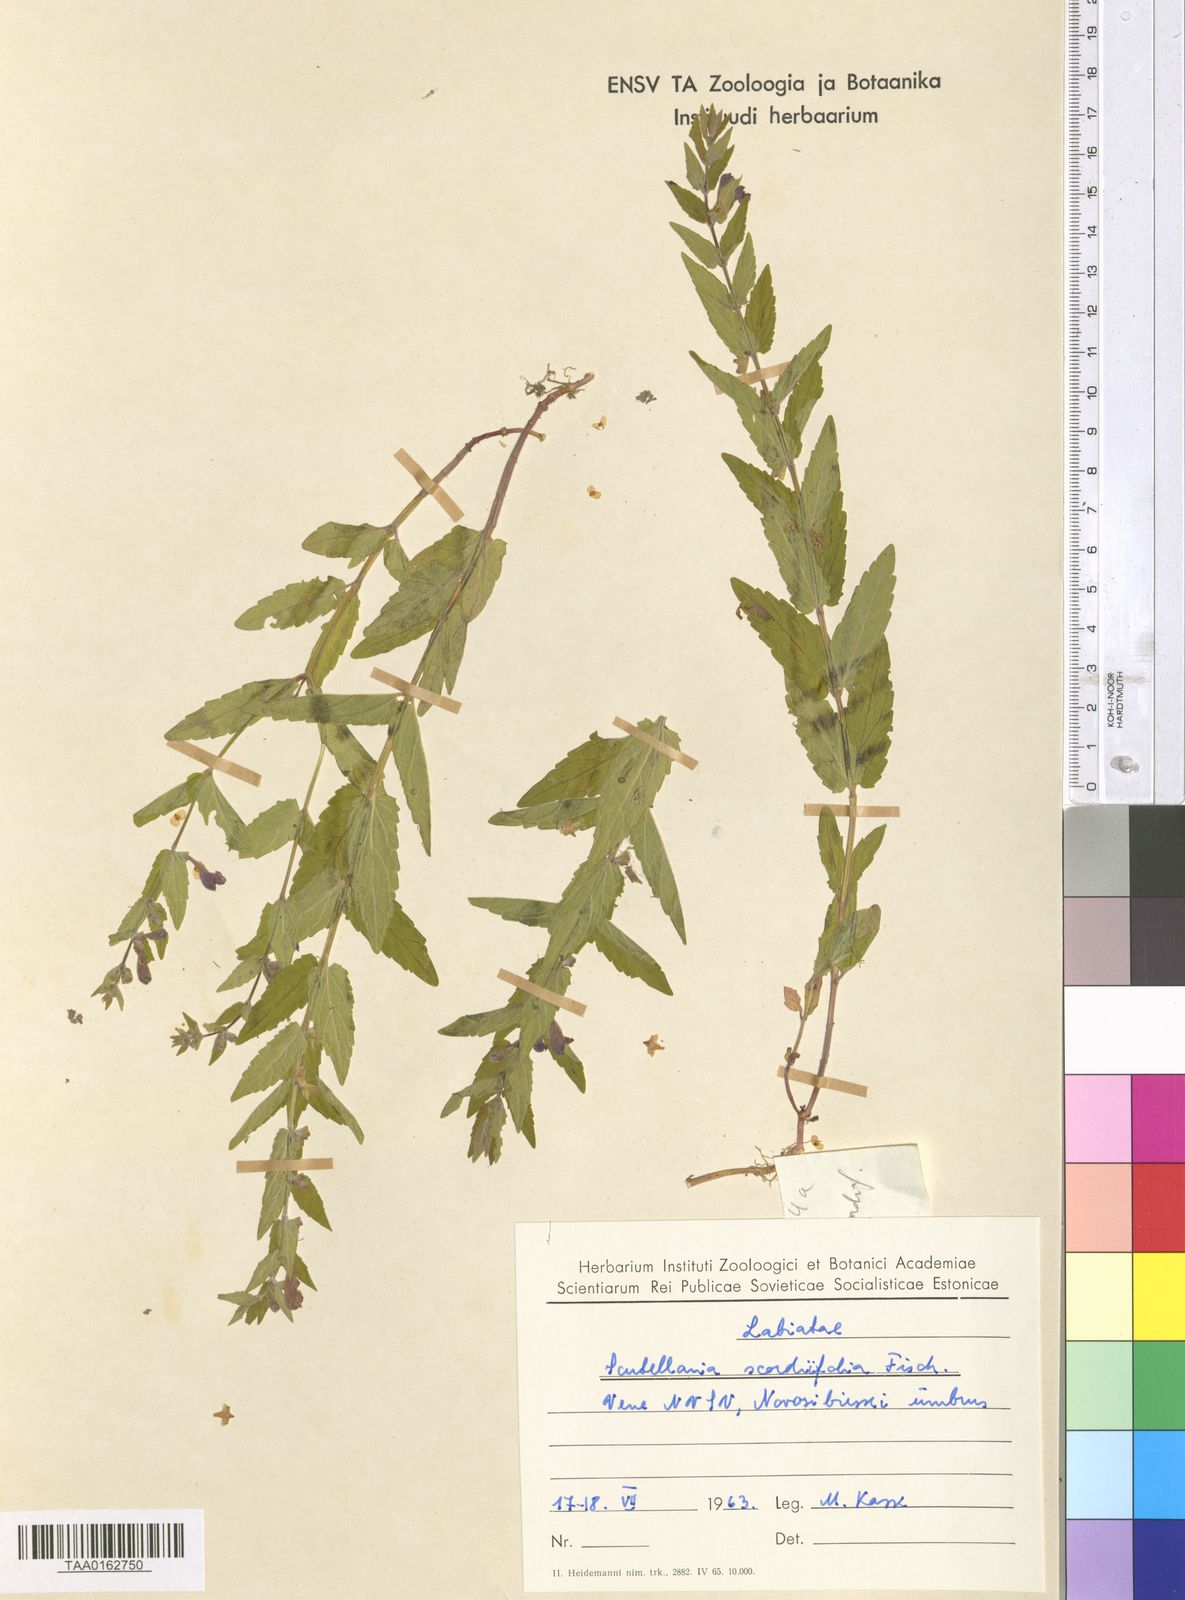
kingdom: Plantae
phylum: Tracheophyta
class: Magnoliopsida
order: Lamiales
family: Lamiaceae
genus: Scutellaria
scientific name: Scutellaria scordiifolia
